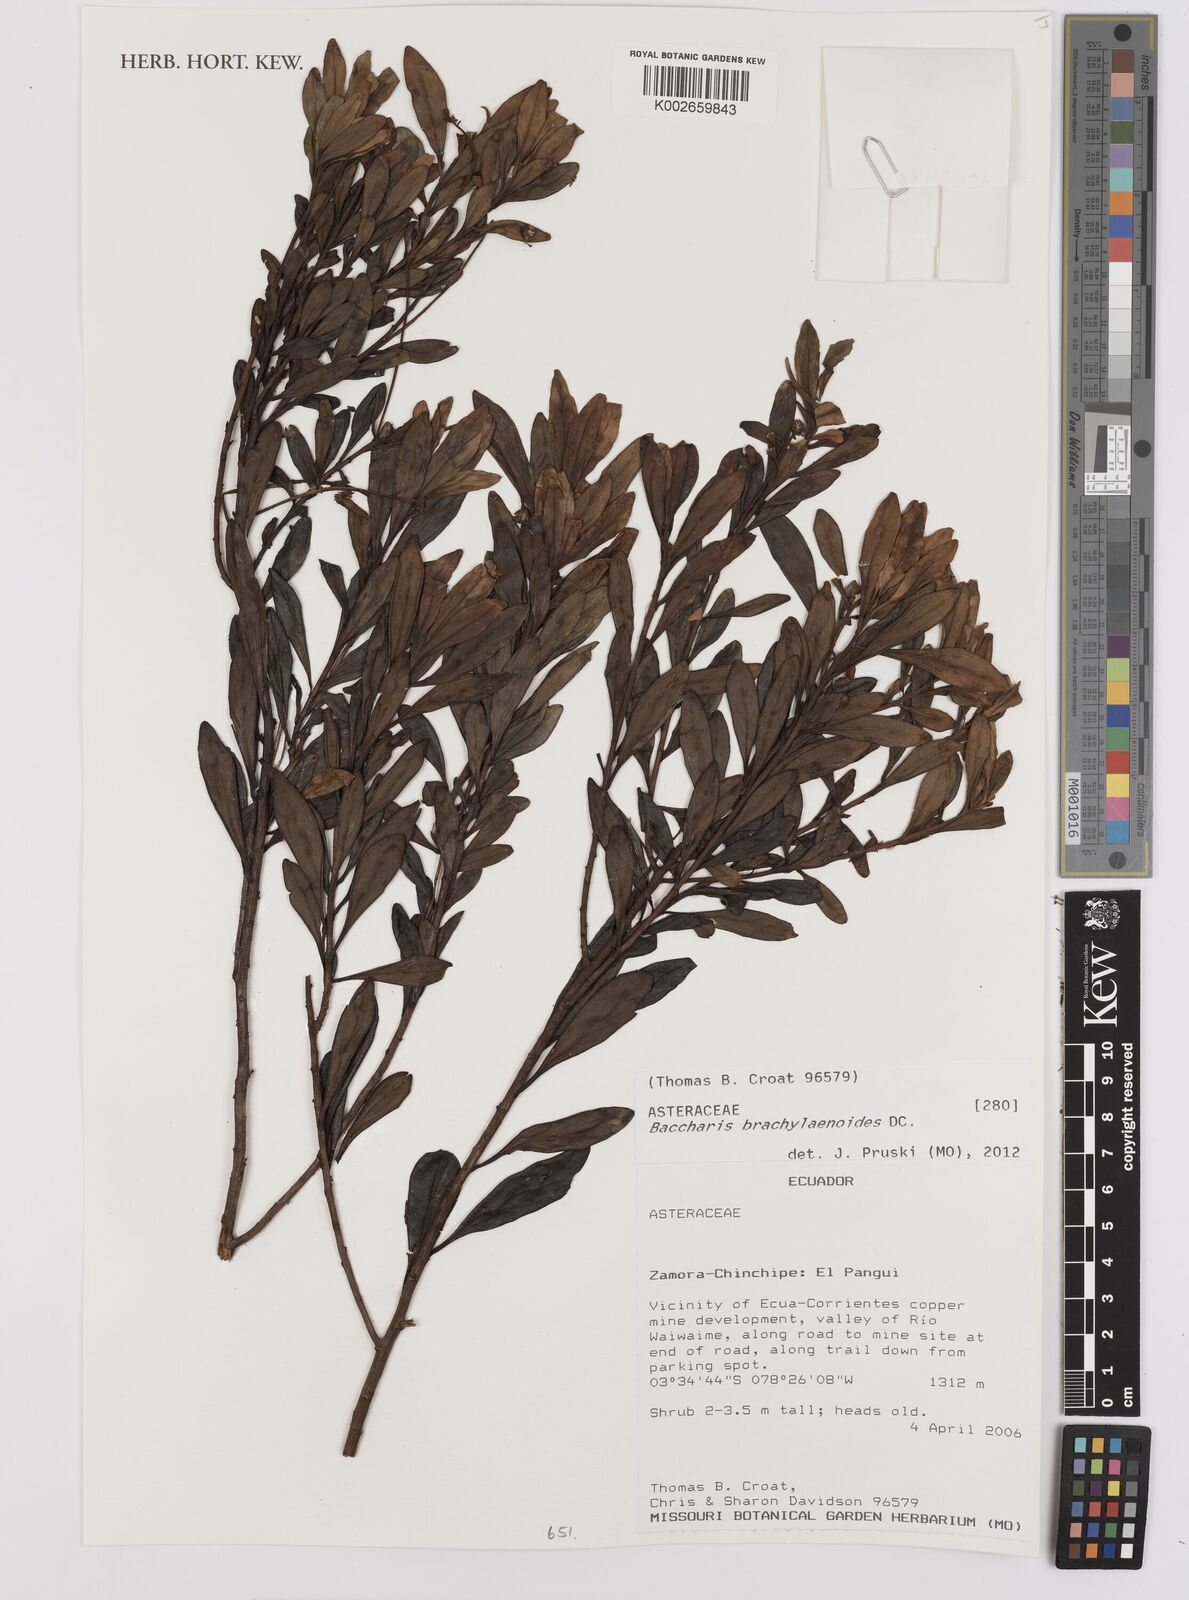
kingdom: Plantae
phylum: Tracheophyta
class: Magnoliopsida
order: Asterales
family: Asteraceae
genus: Baccharis
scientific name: Baccharis oblongifolia
